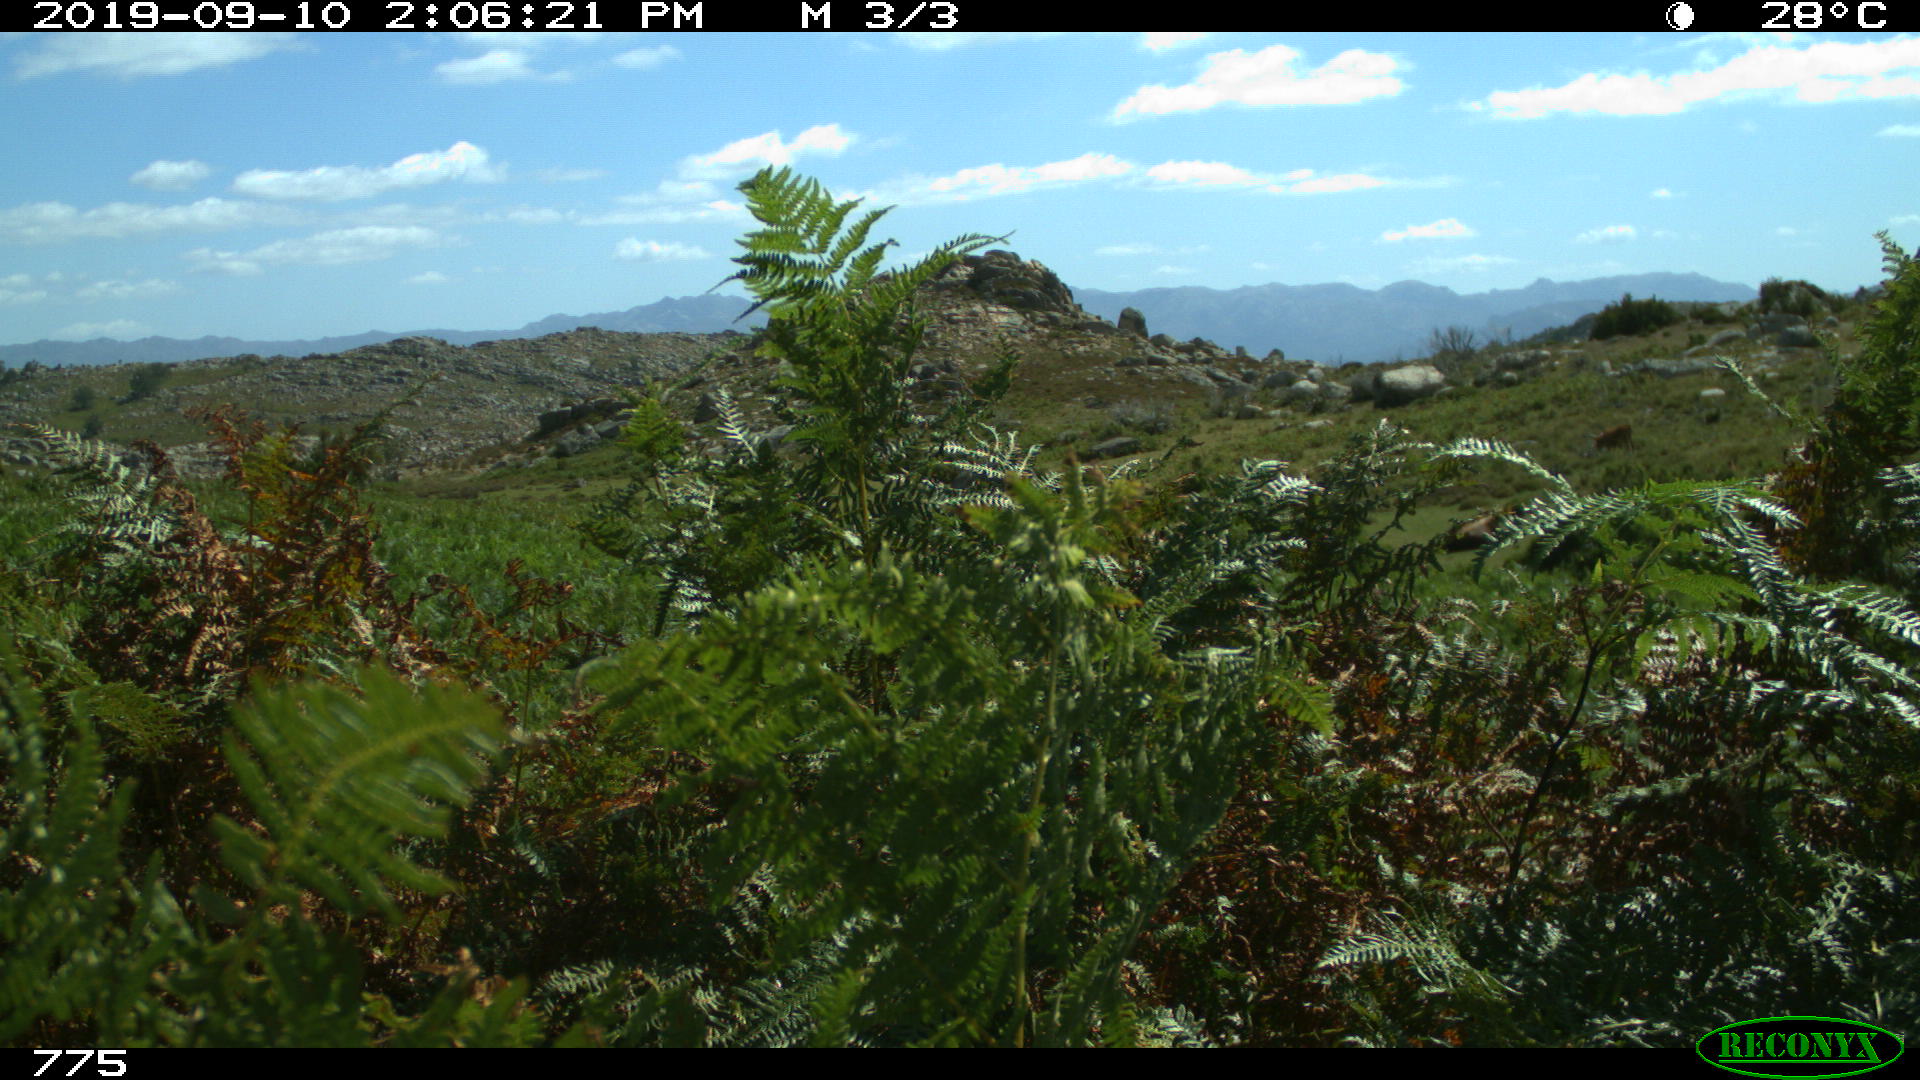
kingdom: Animalia
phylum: Chordata
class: Mammalia
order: Perissodactyla
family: Equidae
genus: Equus
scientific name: Equus caballus
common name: Horse
